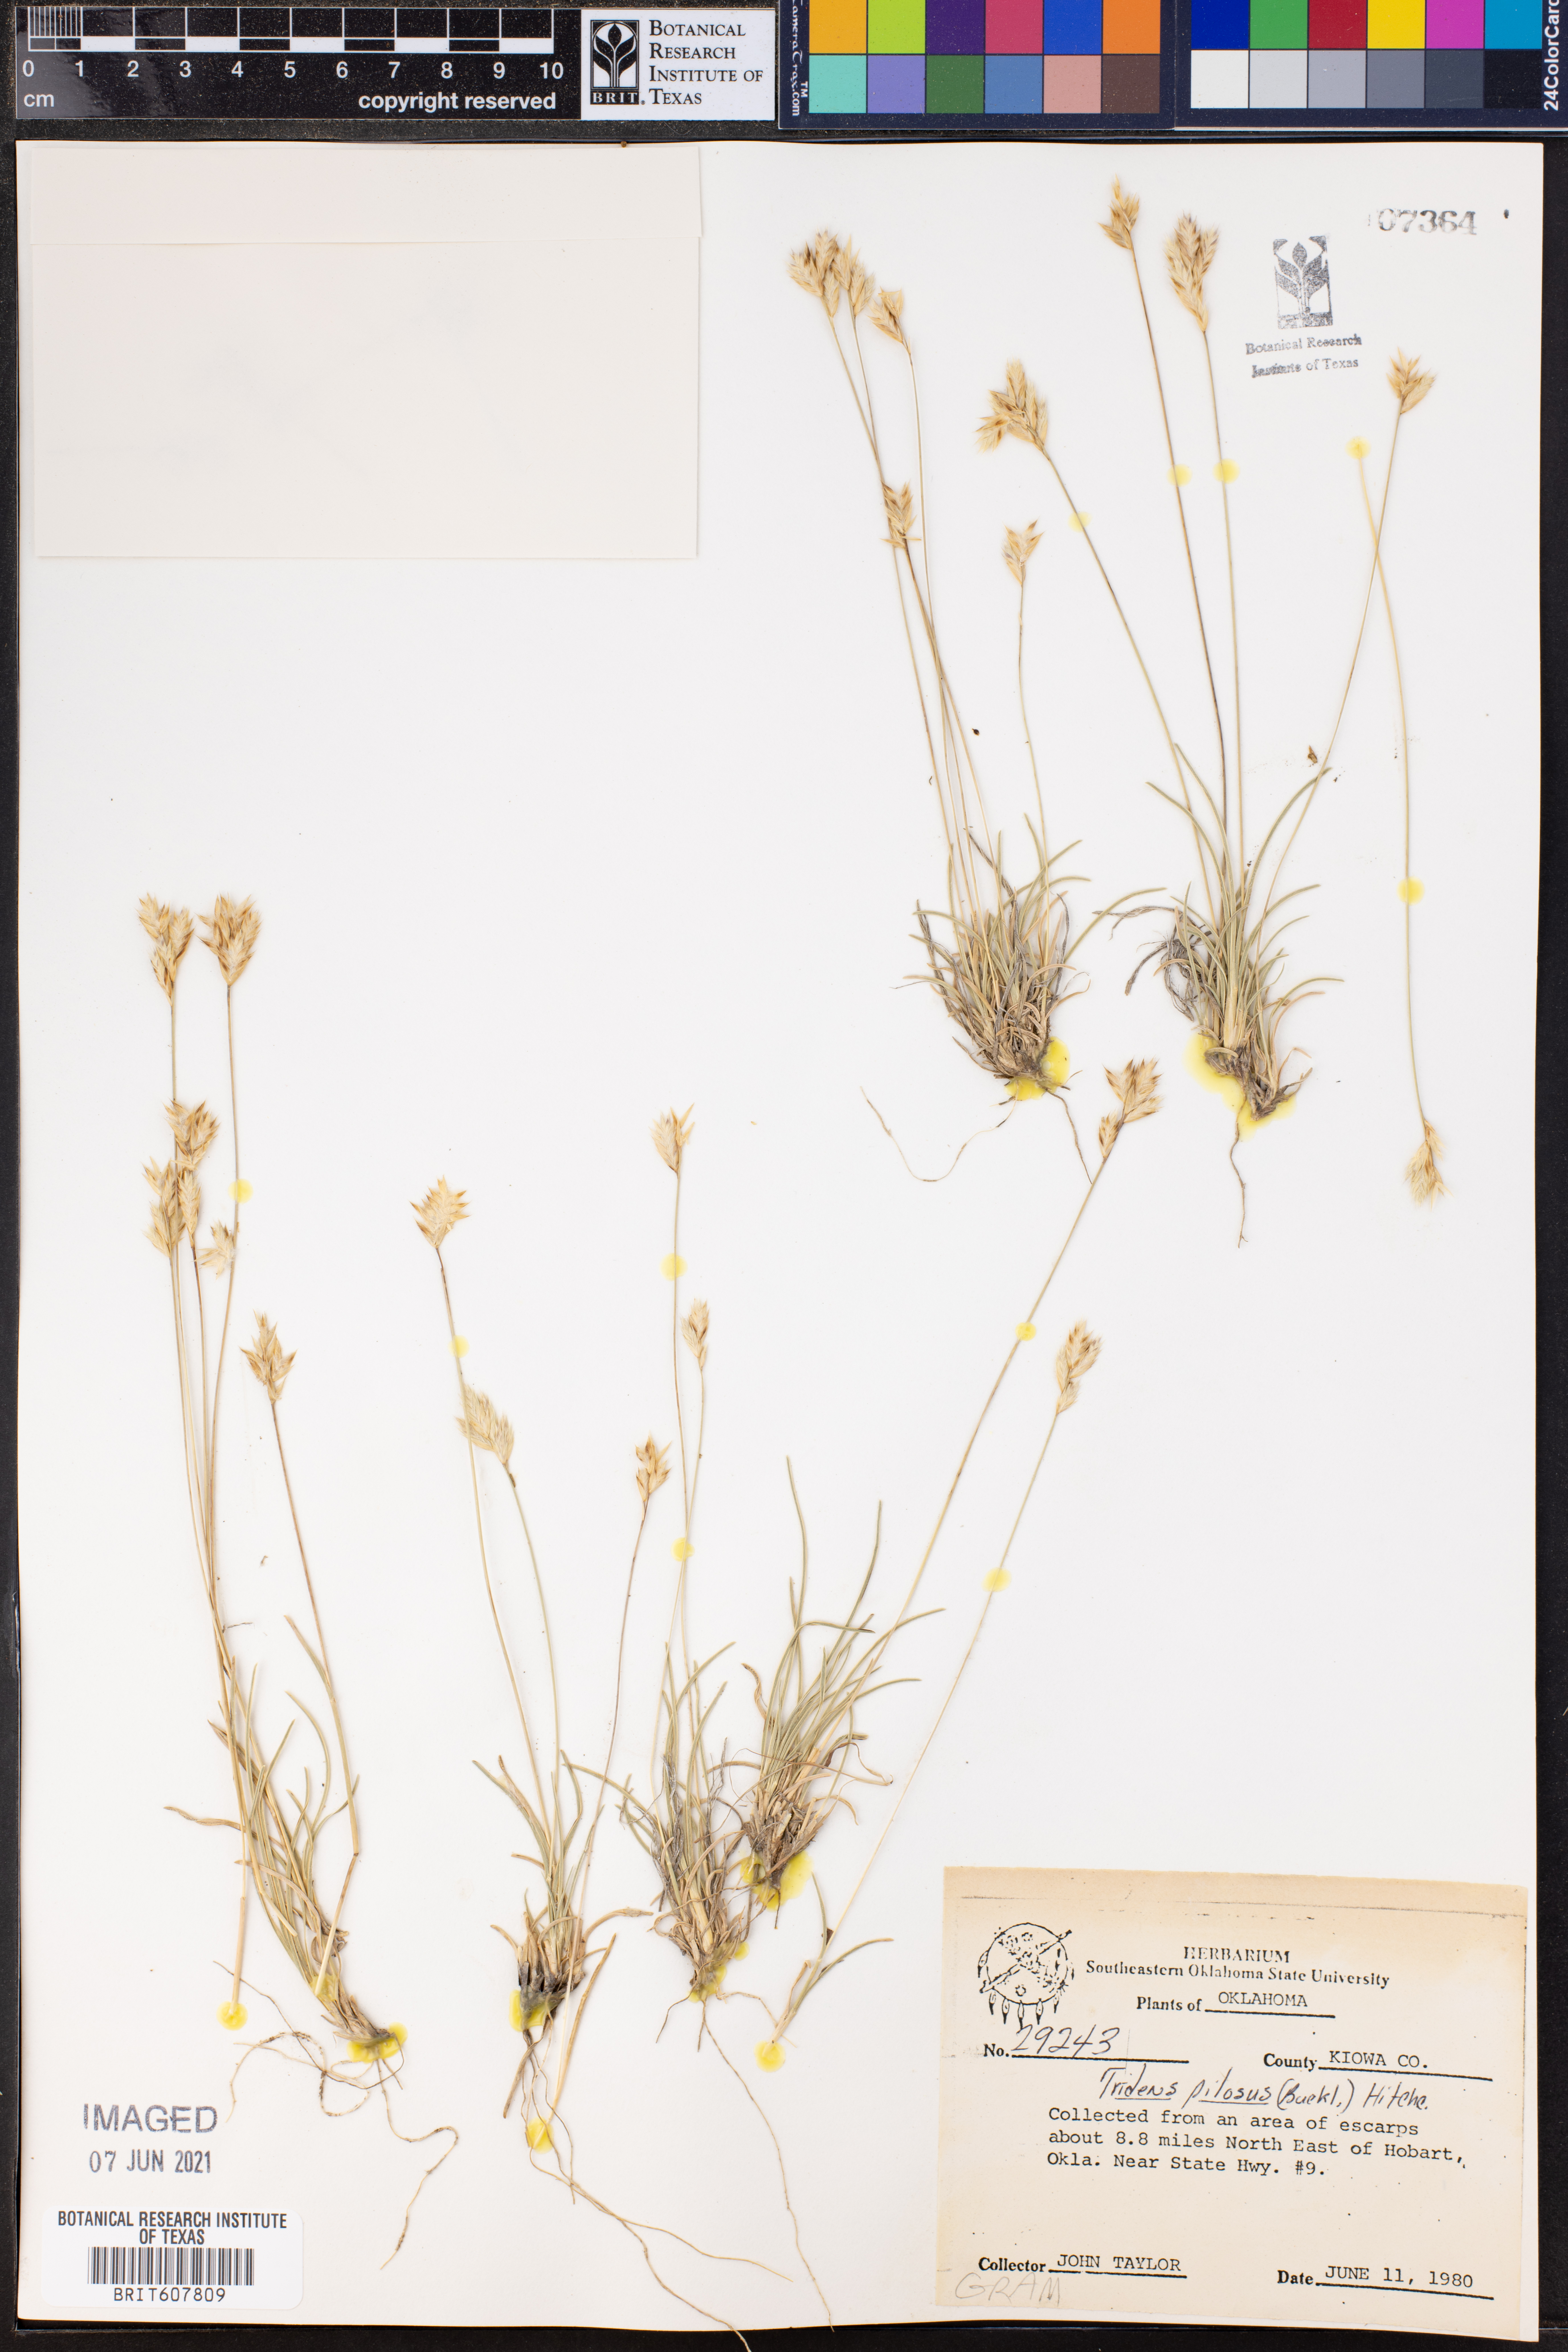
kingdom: Plantae
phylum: Tracheophyta
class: Liliopsida
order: Poales
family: Poaceae
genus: Tridentopsis
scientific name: Tridentopsis mutica
